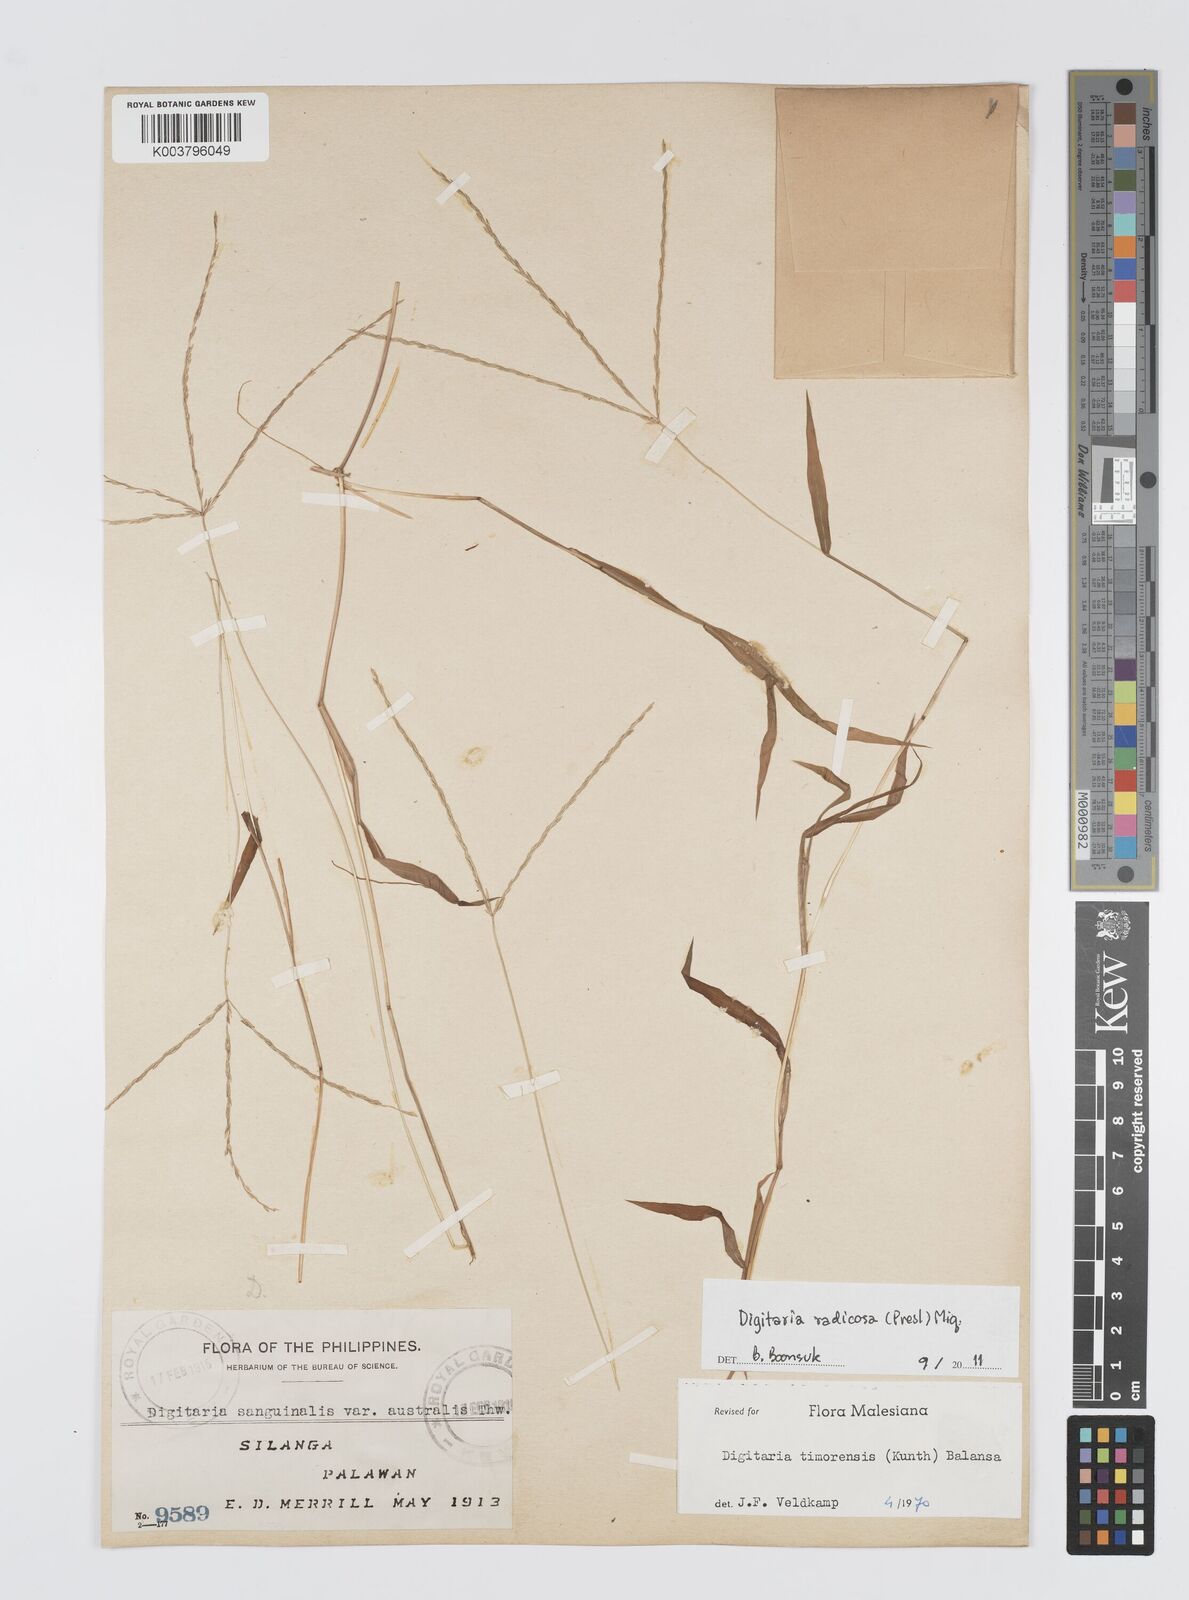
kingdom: Plantae
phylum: Tracheophyta
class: Liliopsida
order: Poales
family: Poaceae
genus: Digitaria
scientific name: Digitaria radicosa
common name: Trailing crabgrass
